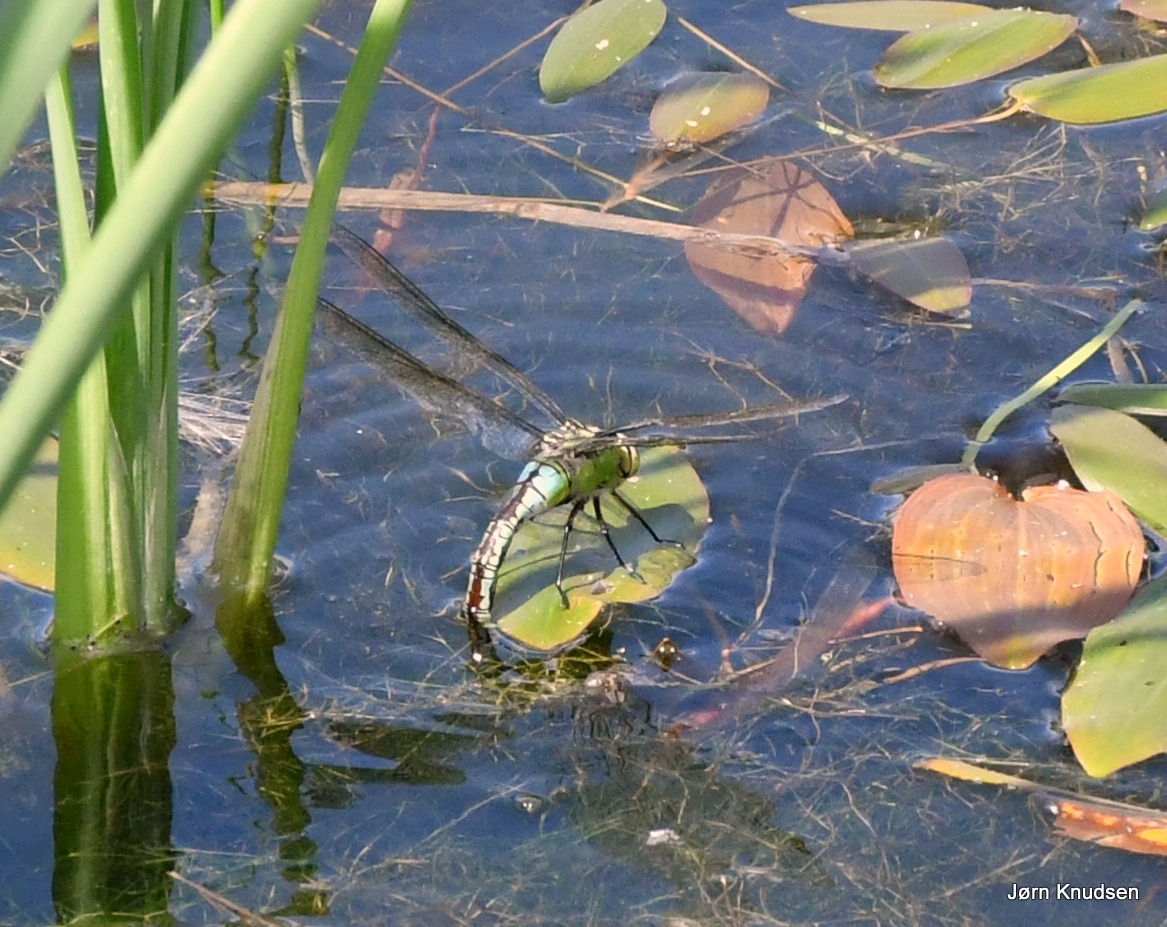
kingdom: Animalia
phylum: Arthropoda
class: Insecta
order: Odonata
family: Aeshnidae
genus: Anax
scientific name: Anax imperator
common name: Stor kejserguldsmed
